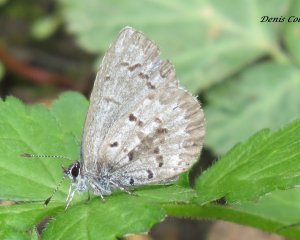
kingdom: Animalia
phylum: Arthropoda
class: Insecta
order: Lepidoptera
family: Lycaenidae
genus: Celastrina
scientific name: Celastrina lucia
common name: Northern Spring Azure
